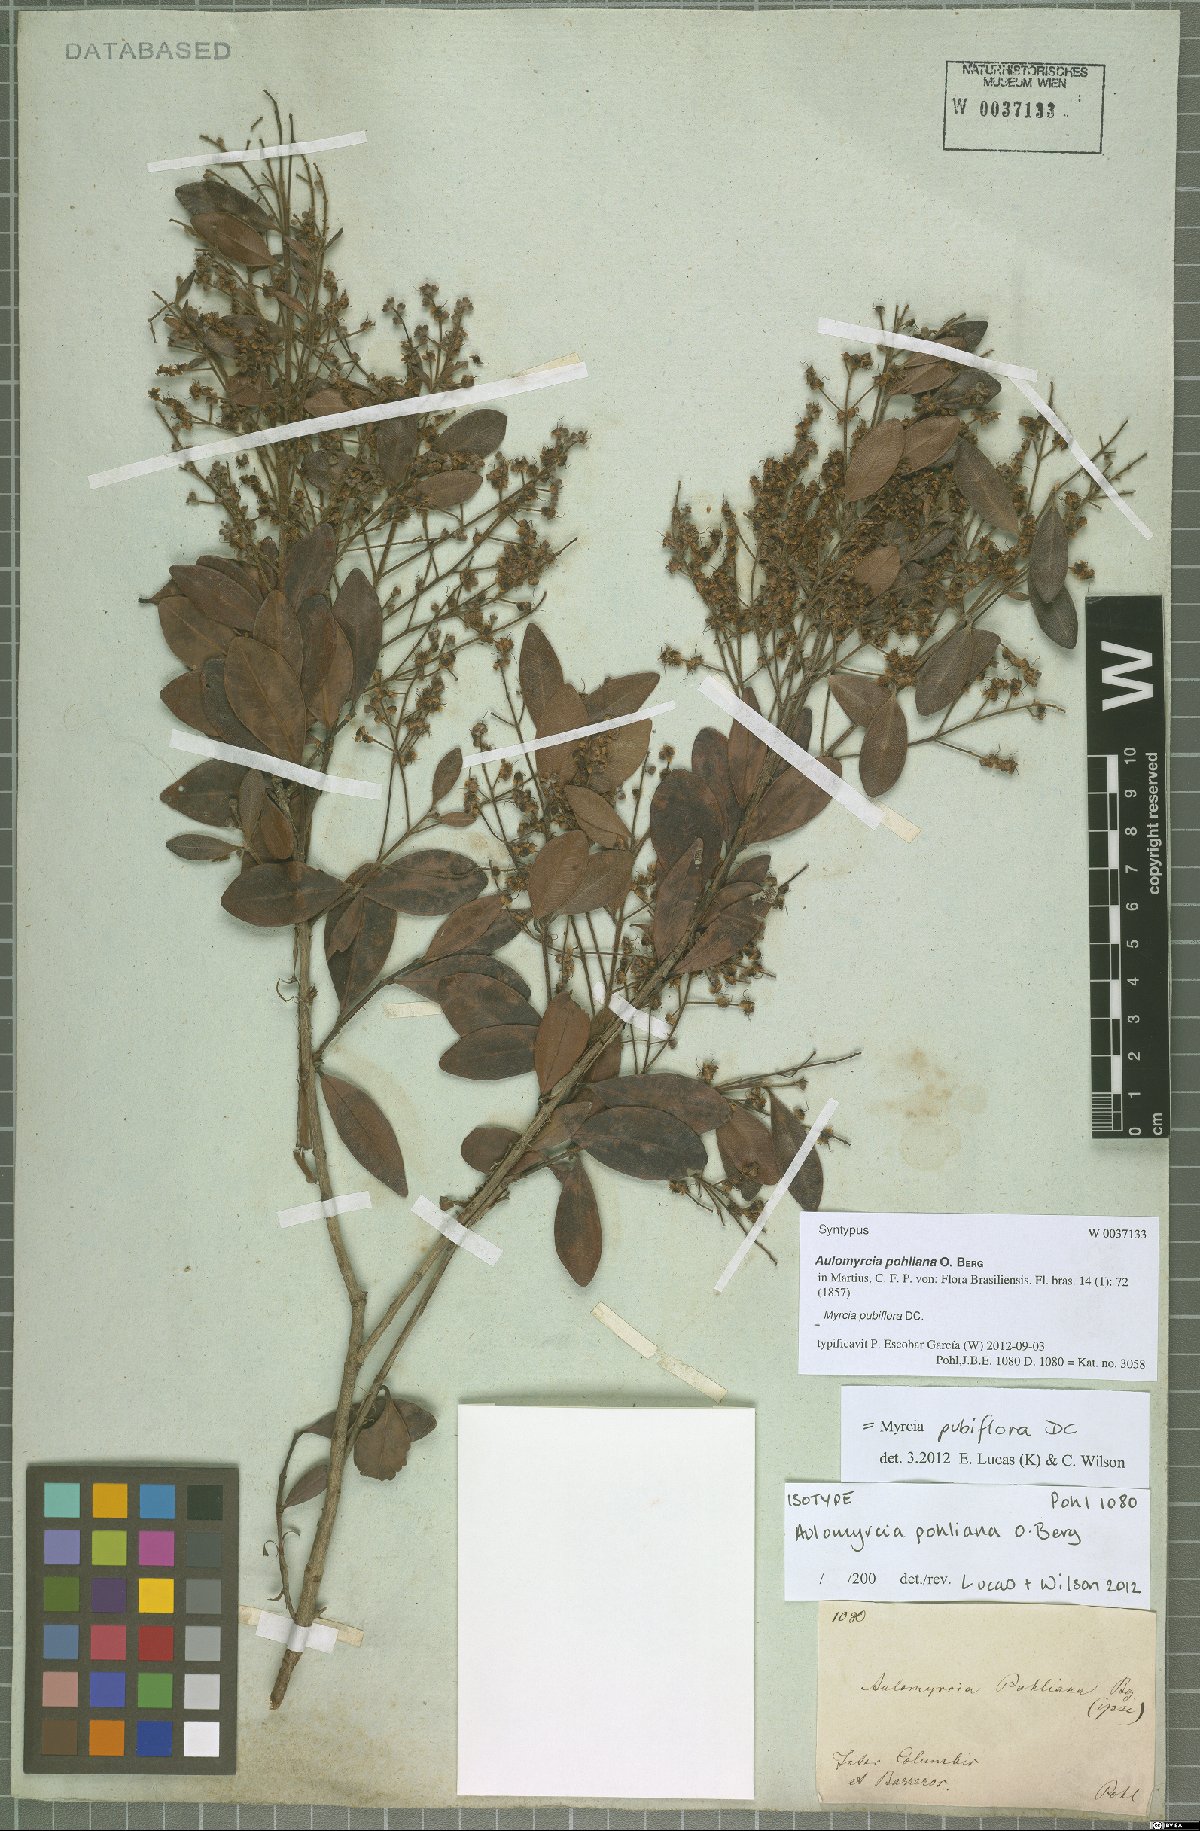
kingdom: Plantae
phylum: Tracheophyta
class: Magnoliopsida
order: Myrtales
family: Myrtaceae
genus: Myrcia
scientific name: Myrcia pubiflora
